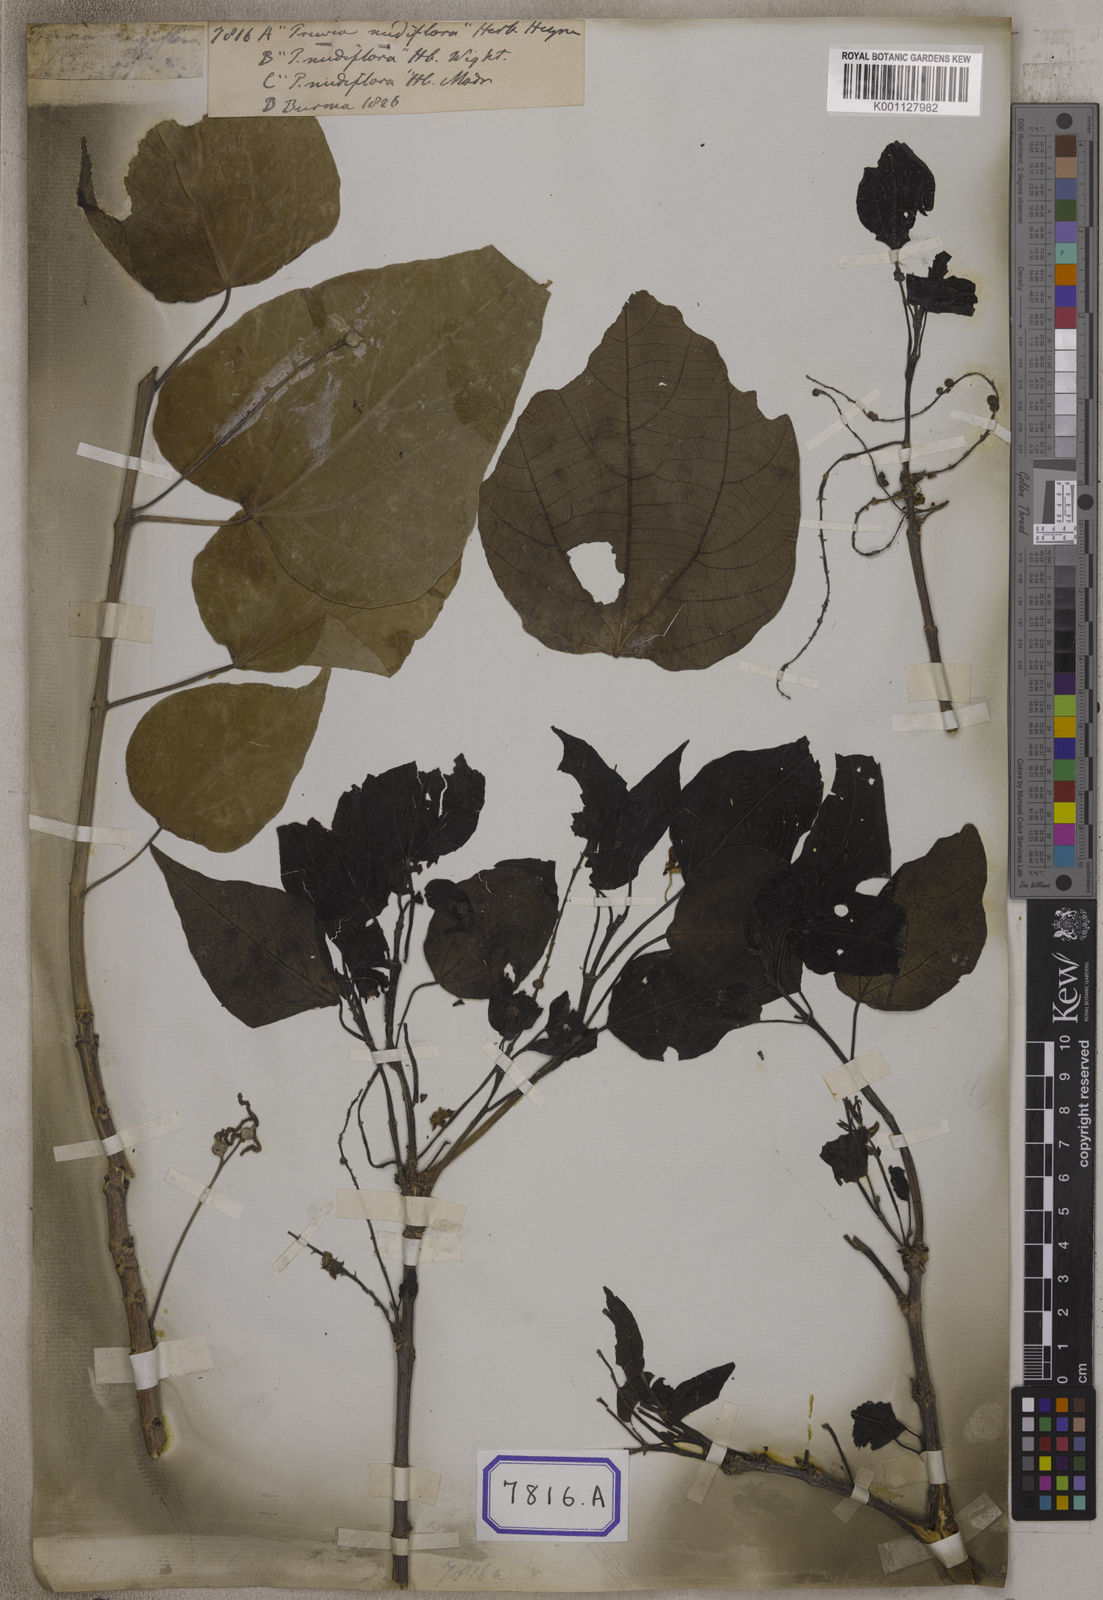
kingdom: Plantae
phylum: Tracheophyta
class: Magnoliopsida
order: Malpighiales
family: Euphorbiaceae
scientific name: Euphorbiaceae
